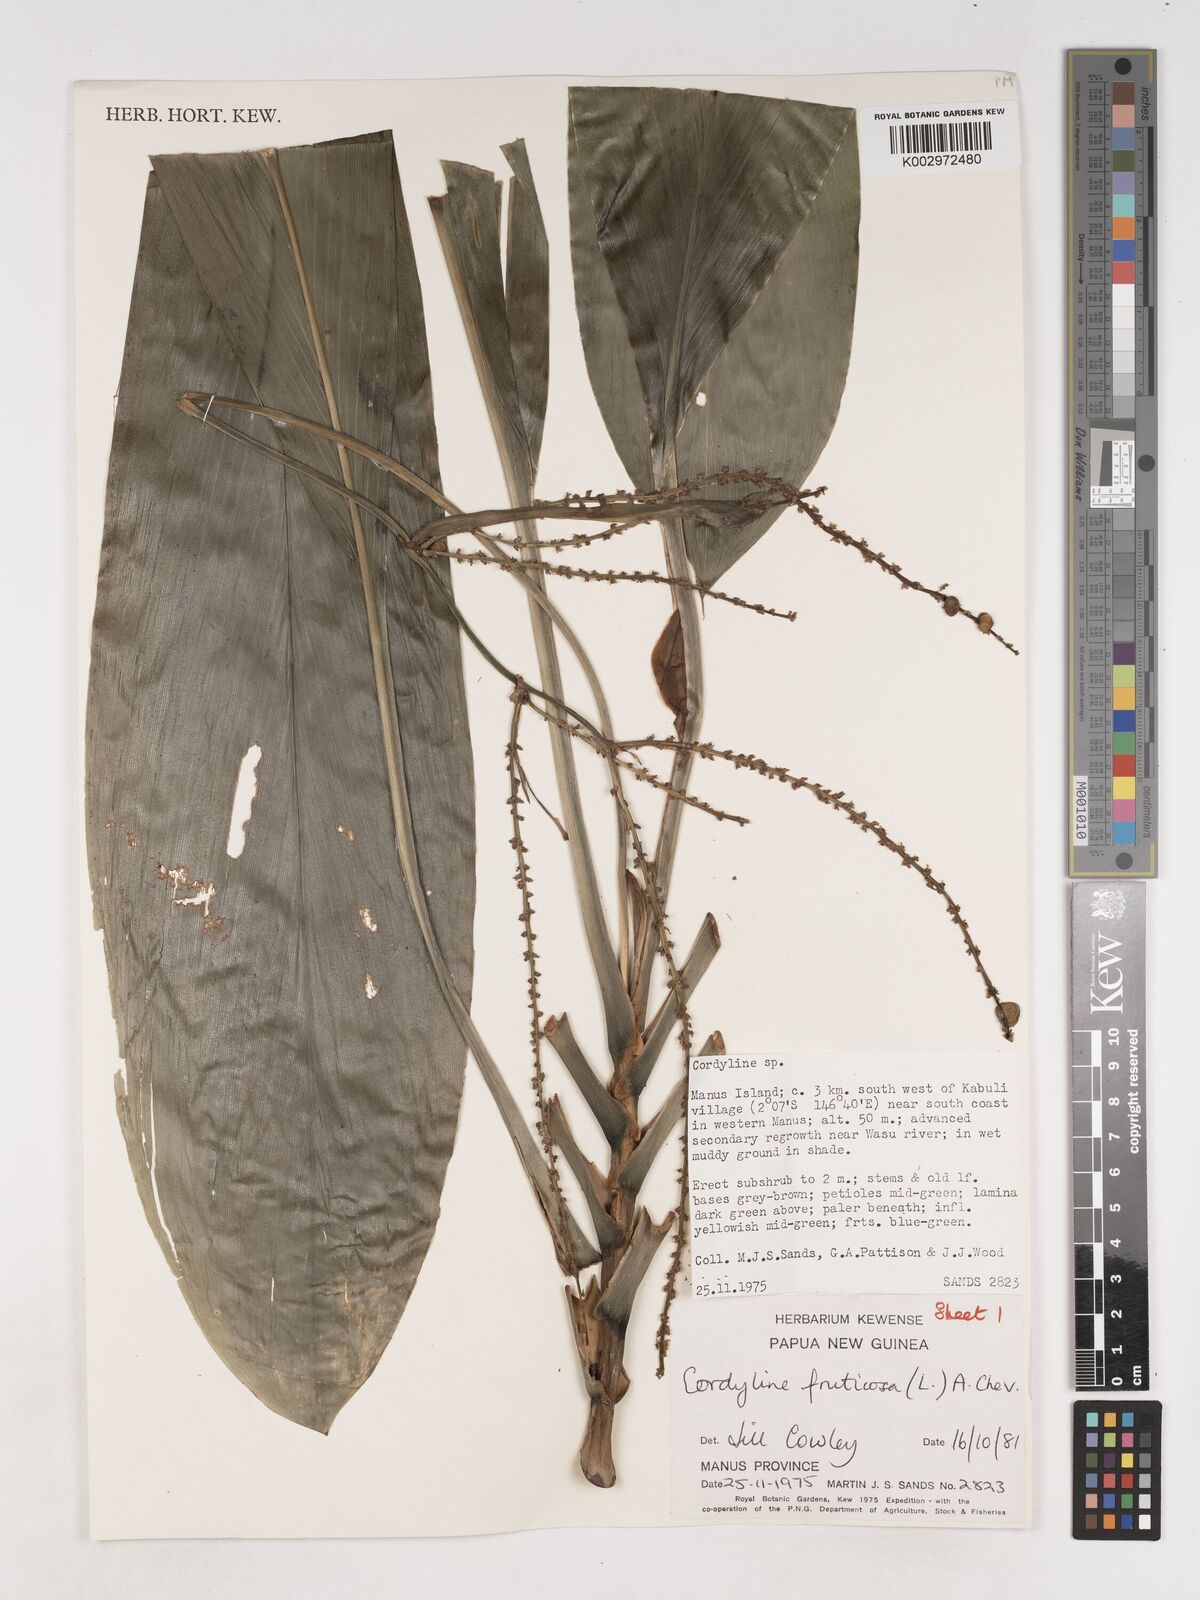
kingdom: Plantae
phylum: Tracheophyta
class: Liliopsida
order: Asparagales
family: Asparagaceae
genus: Cordyline
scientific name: Cordyline fruticosa
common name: Good-luck-plant
